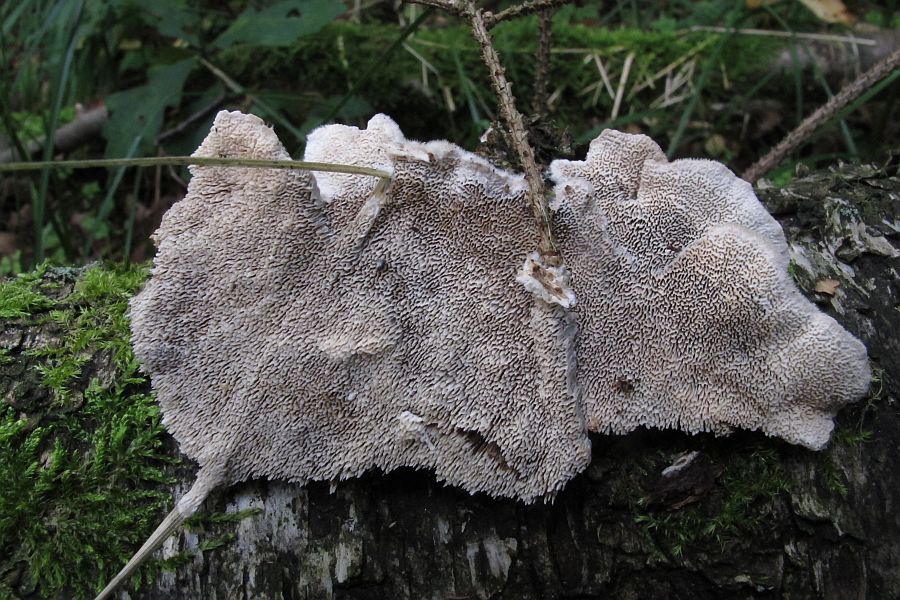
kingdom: Fungi
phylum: Basidiomycota
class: Agaricomycetes
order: Polyporales
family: Cerrenaceae
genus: Cerrena
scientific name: Cerrena unicolor
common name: ensfarvet læderporesvamp
